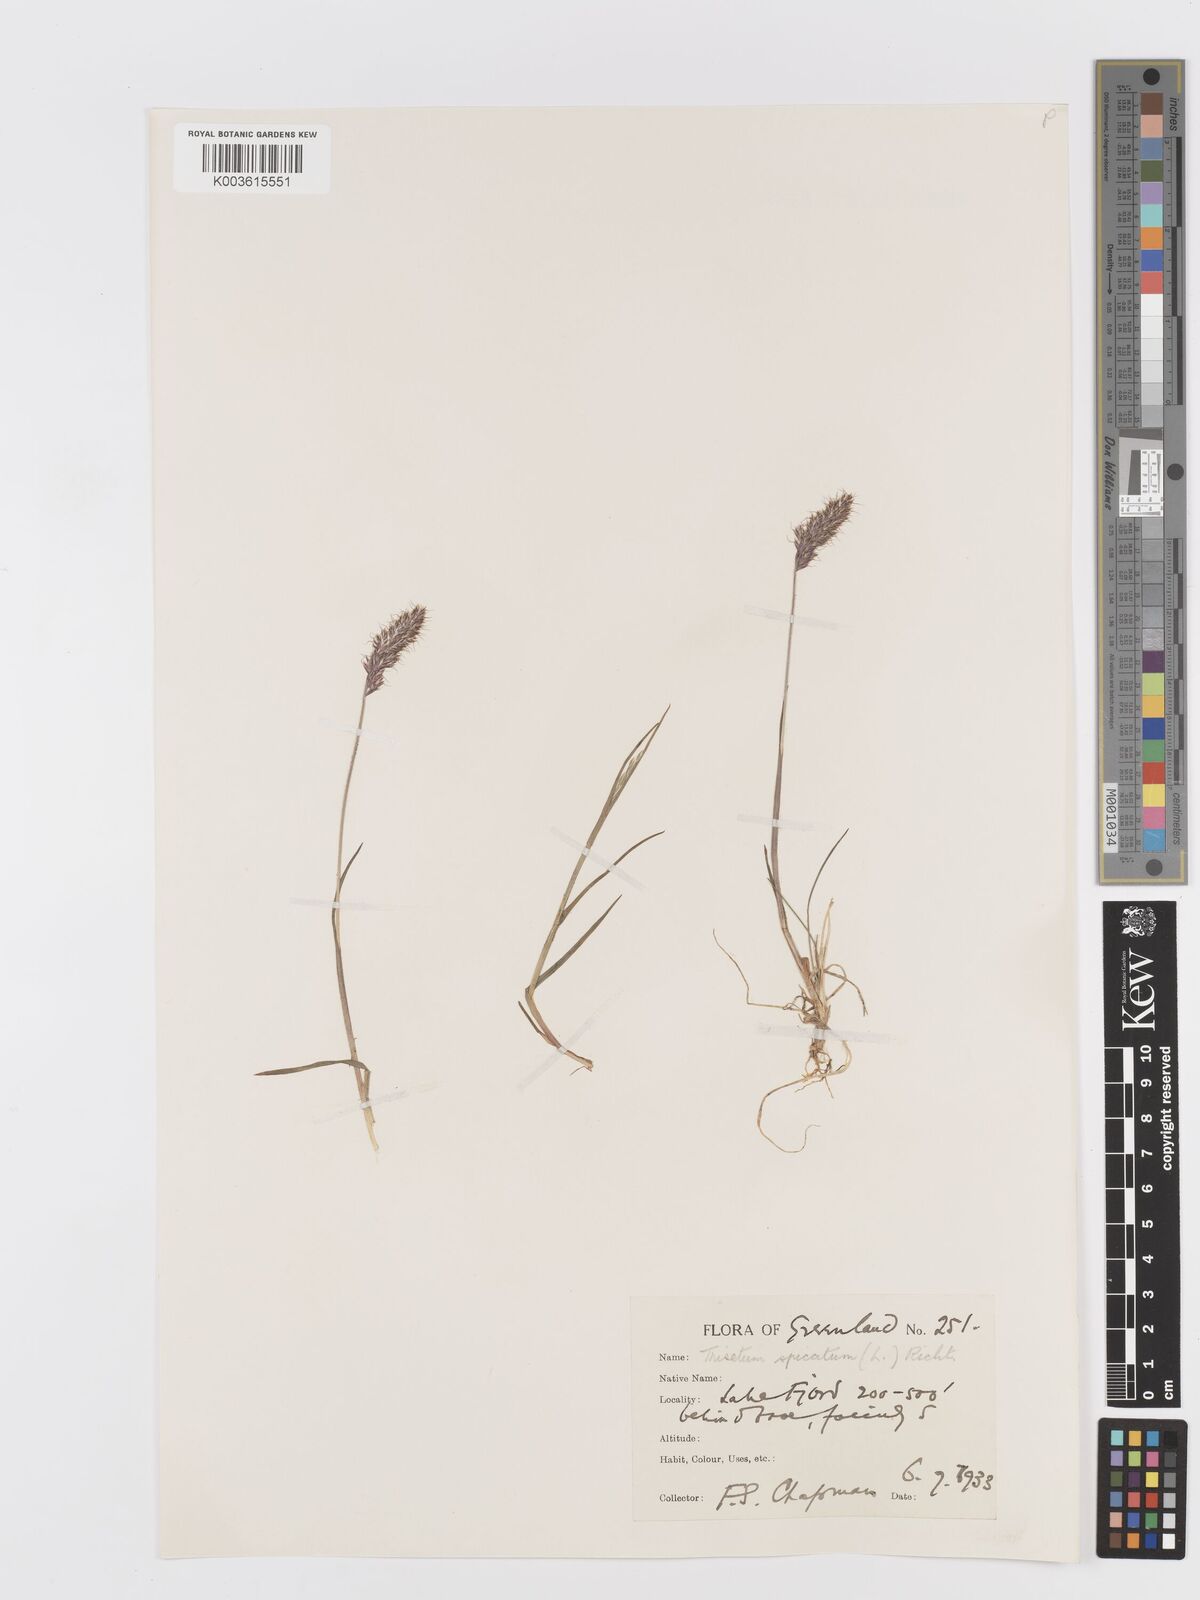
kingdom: Plantae
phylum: Tracheophyta
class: Liliopsida
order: Poales
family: Poaceae
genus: Koeleria
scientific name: Koeleria spicata
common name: Mountain trisetum
